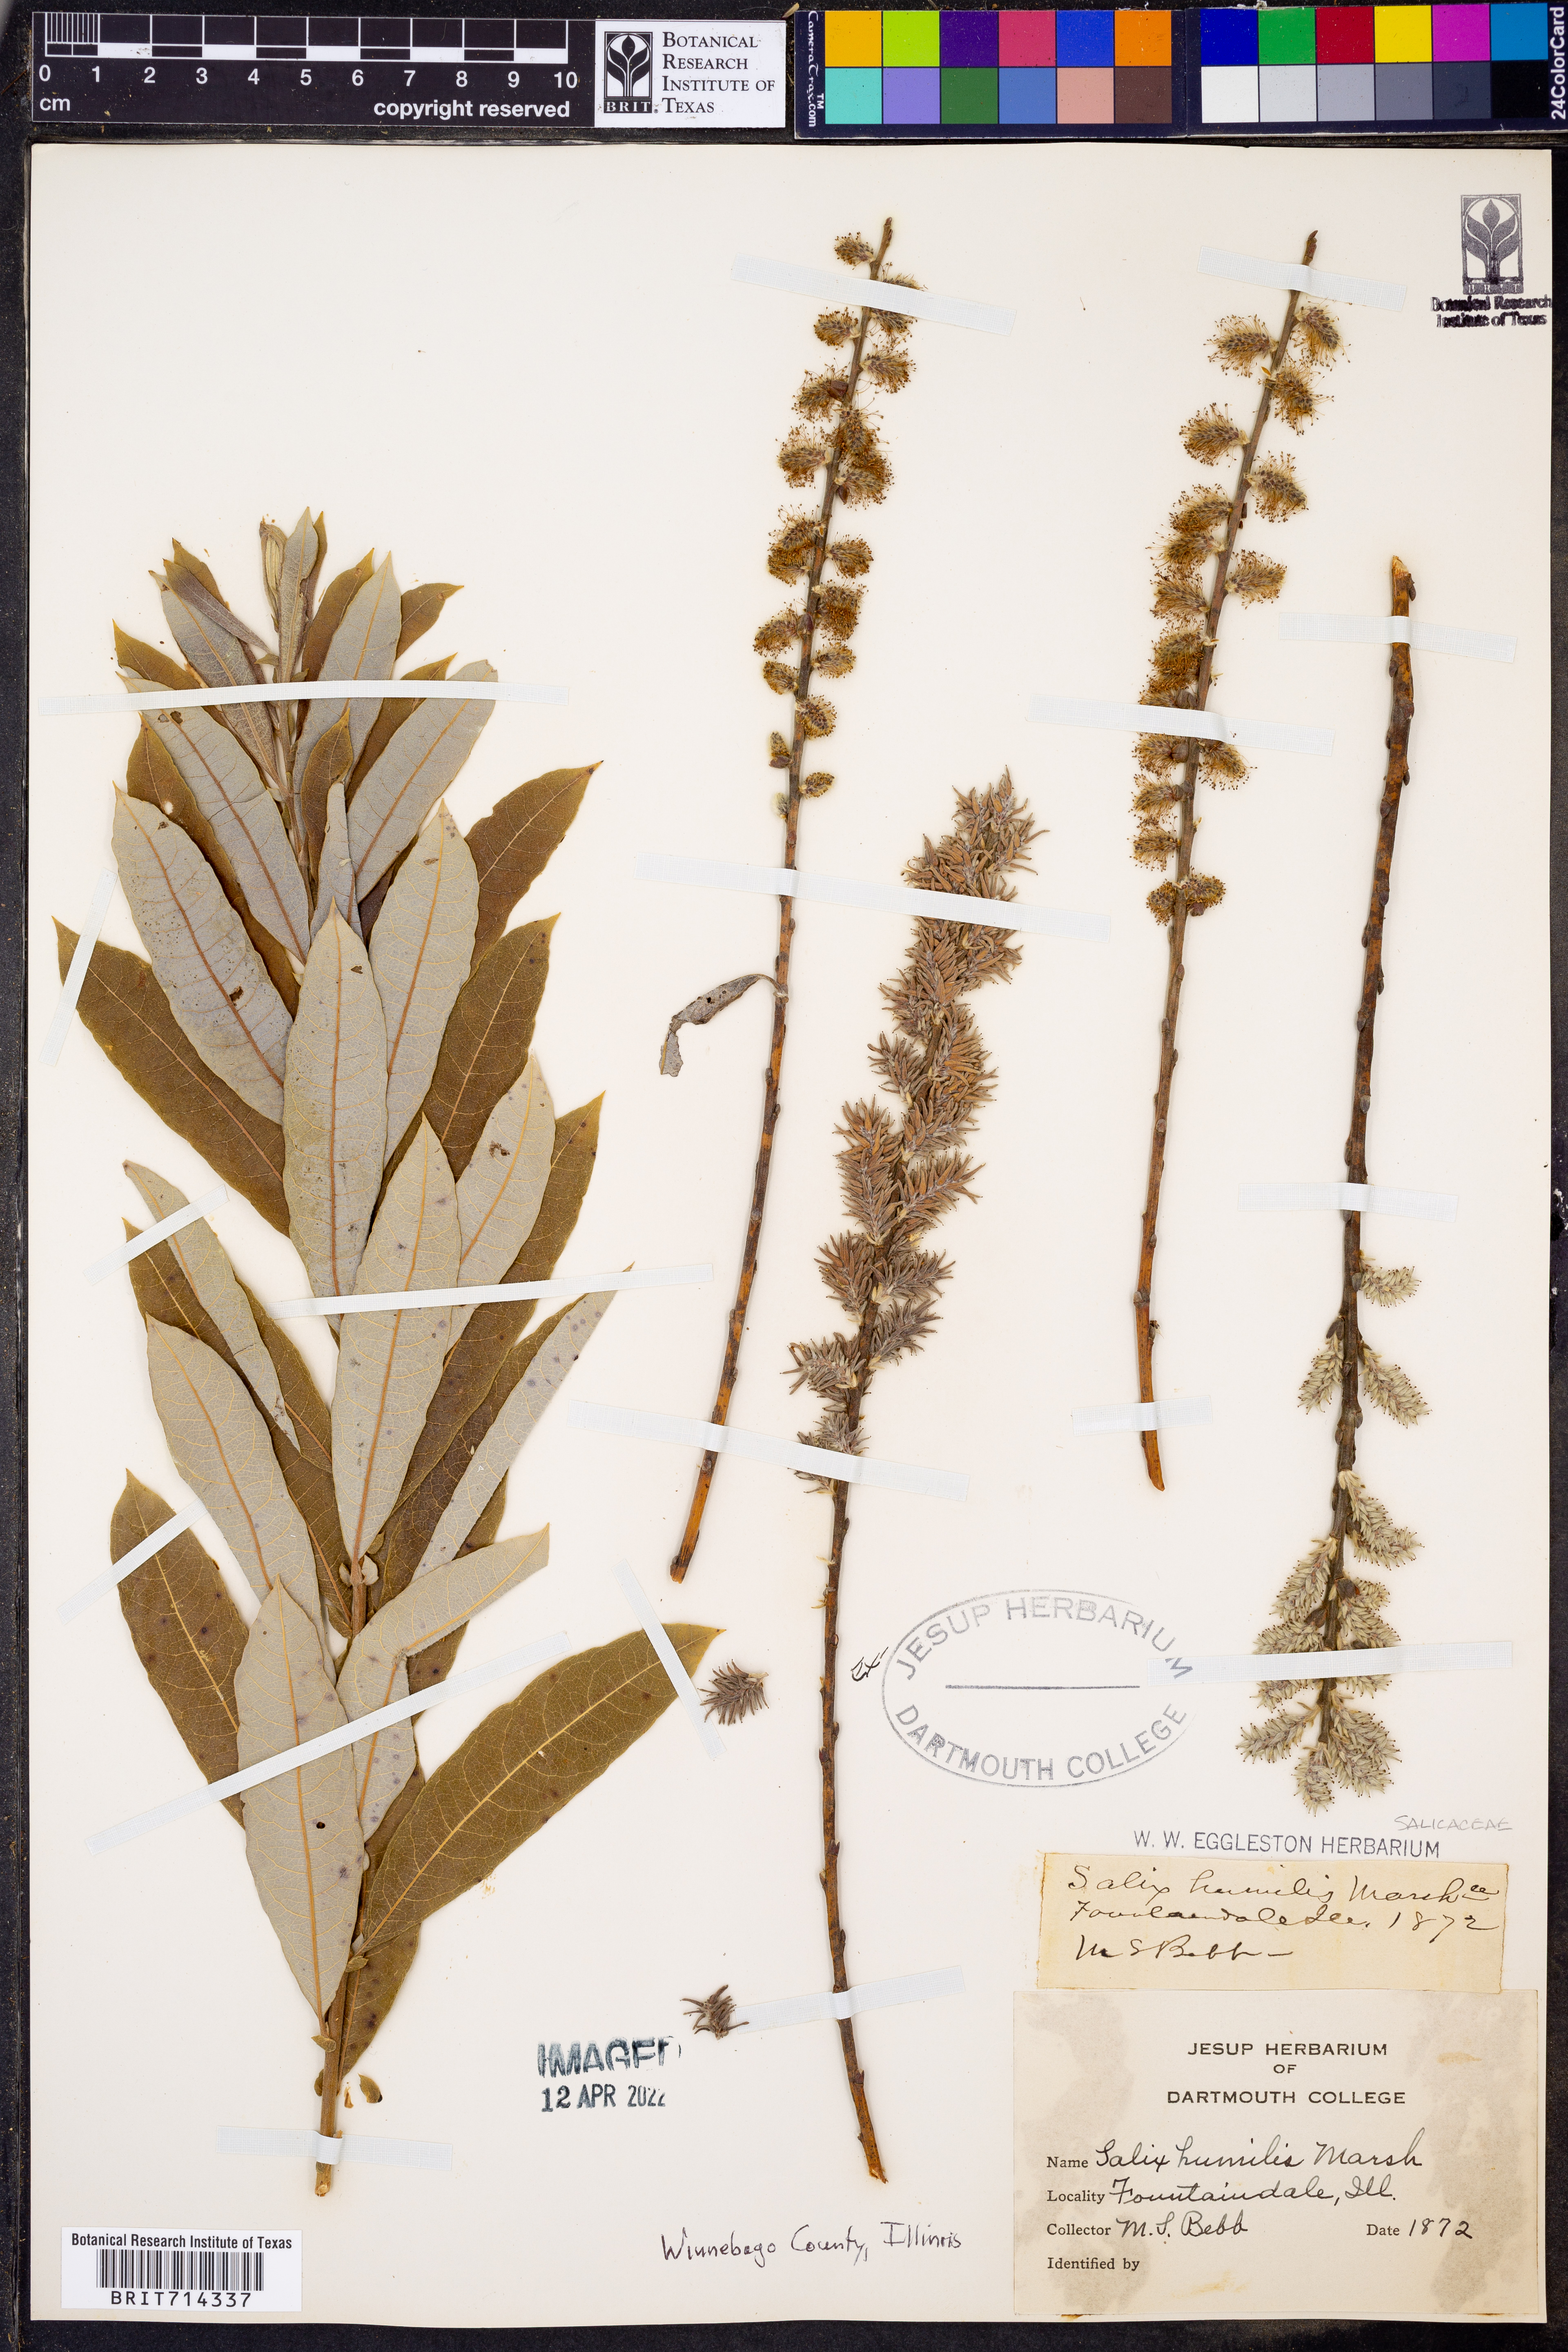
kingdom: Plantae
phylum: Tracheophyta
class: Magnoliopsida
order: Malpighiales
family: Salicaceae
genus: Salix
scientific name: Salix humilis
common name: Prairie willow
